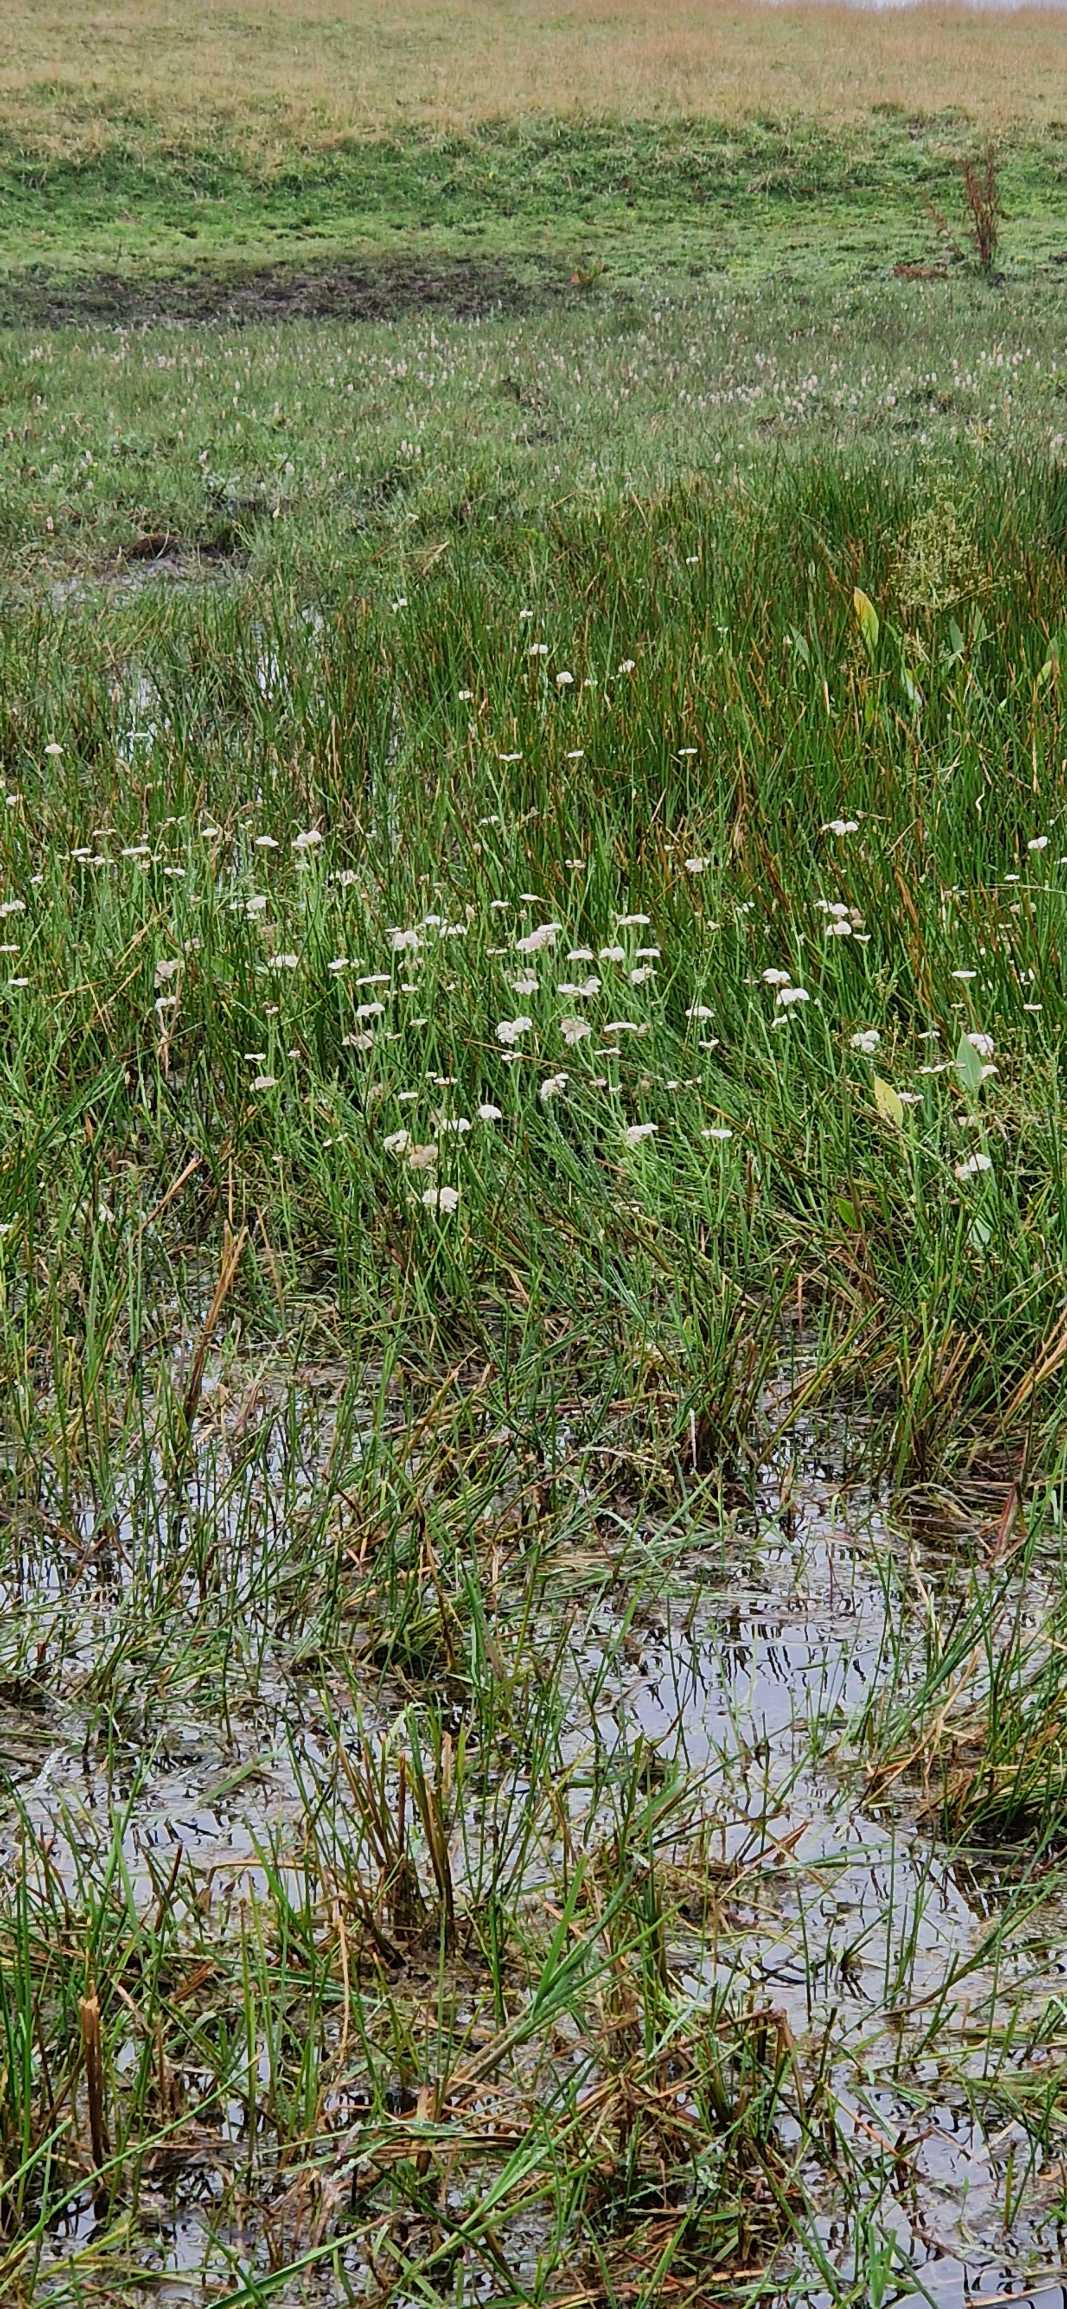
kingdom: Plantae
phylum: Tracheophyta
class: Magnoliopsida
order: Apiales
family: Apiaceae
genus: Oenanthe
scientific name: Oenanthe fistulosa
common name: Vand-klaseskærm
